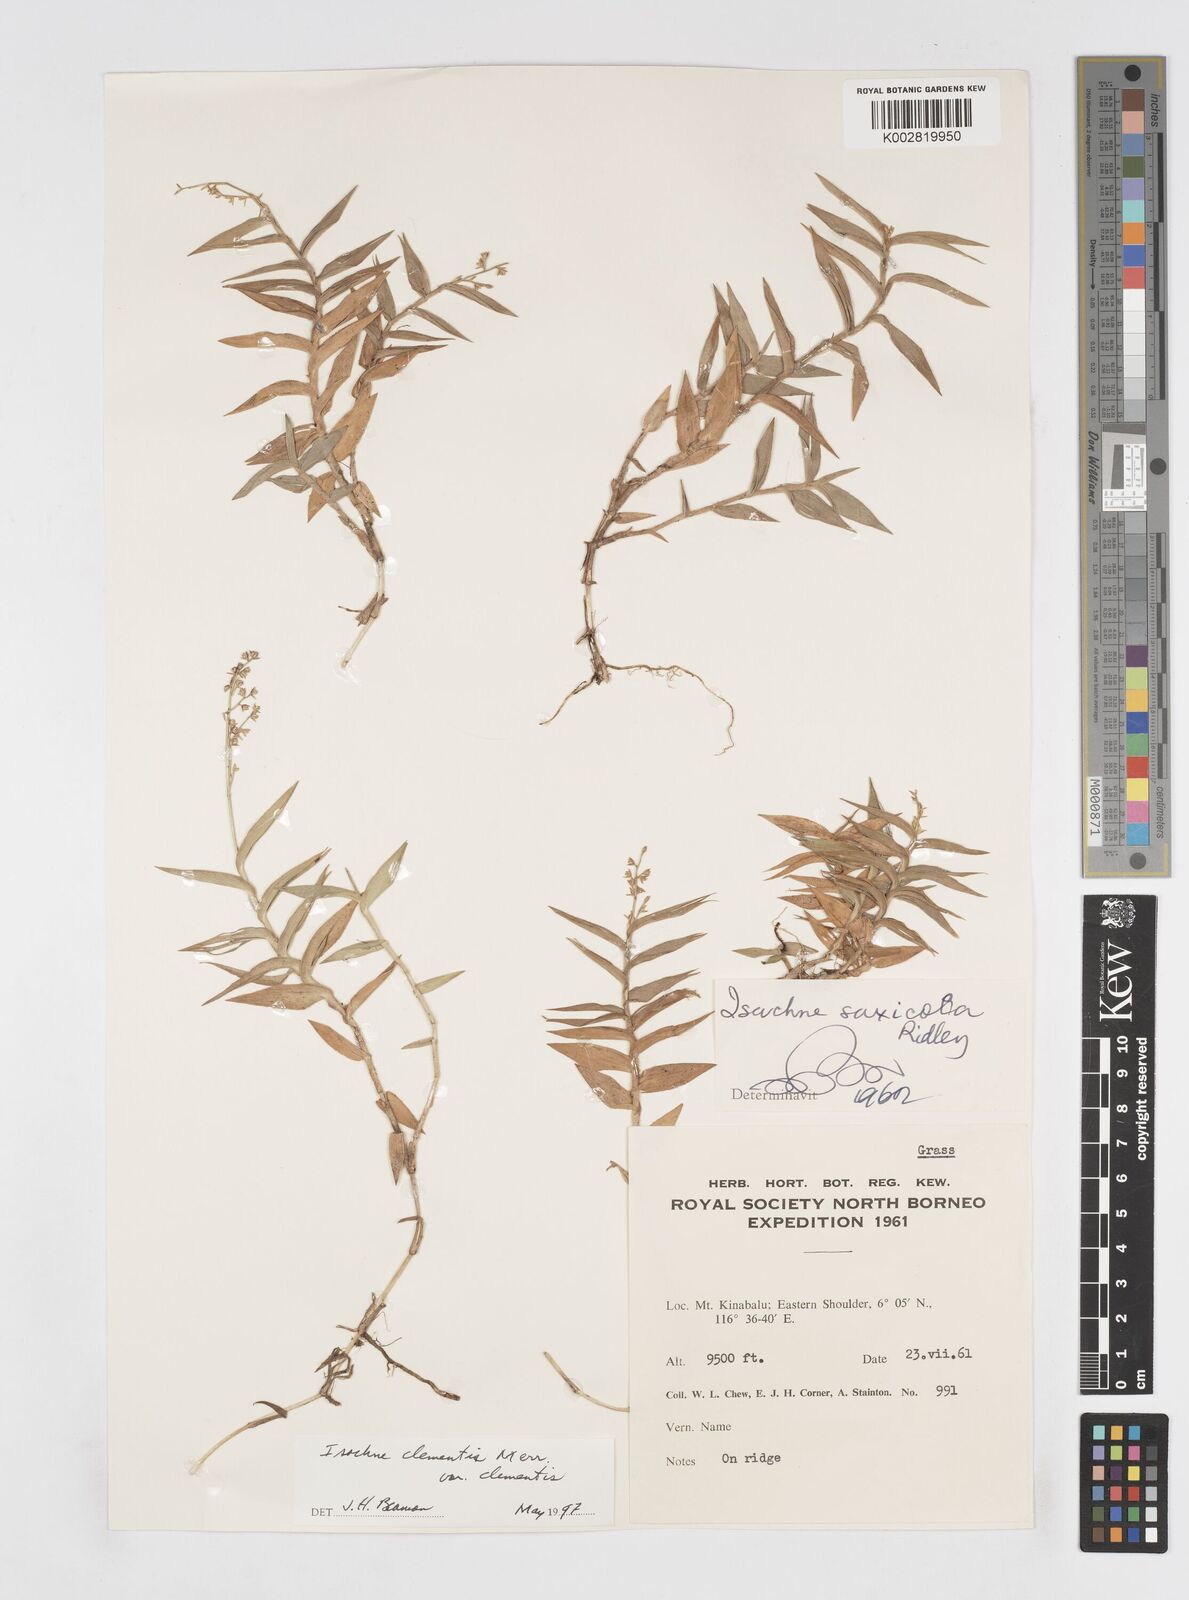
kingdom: Plantae
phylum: Tracheophyta
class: Liliopsida
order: Poales
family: Poaceae
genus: Isachne
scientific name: Isachne clementis
